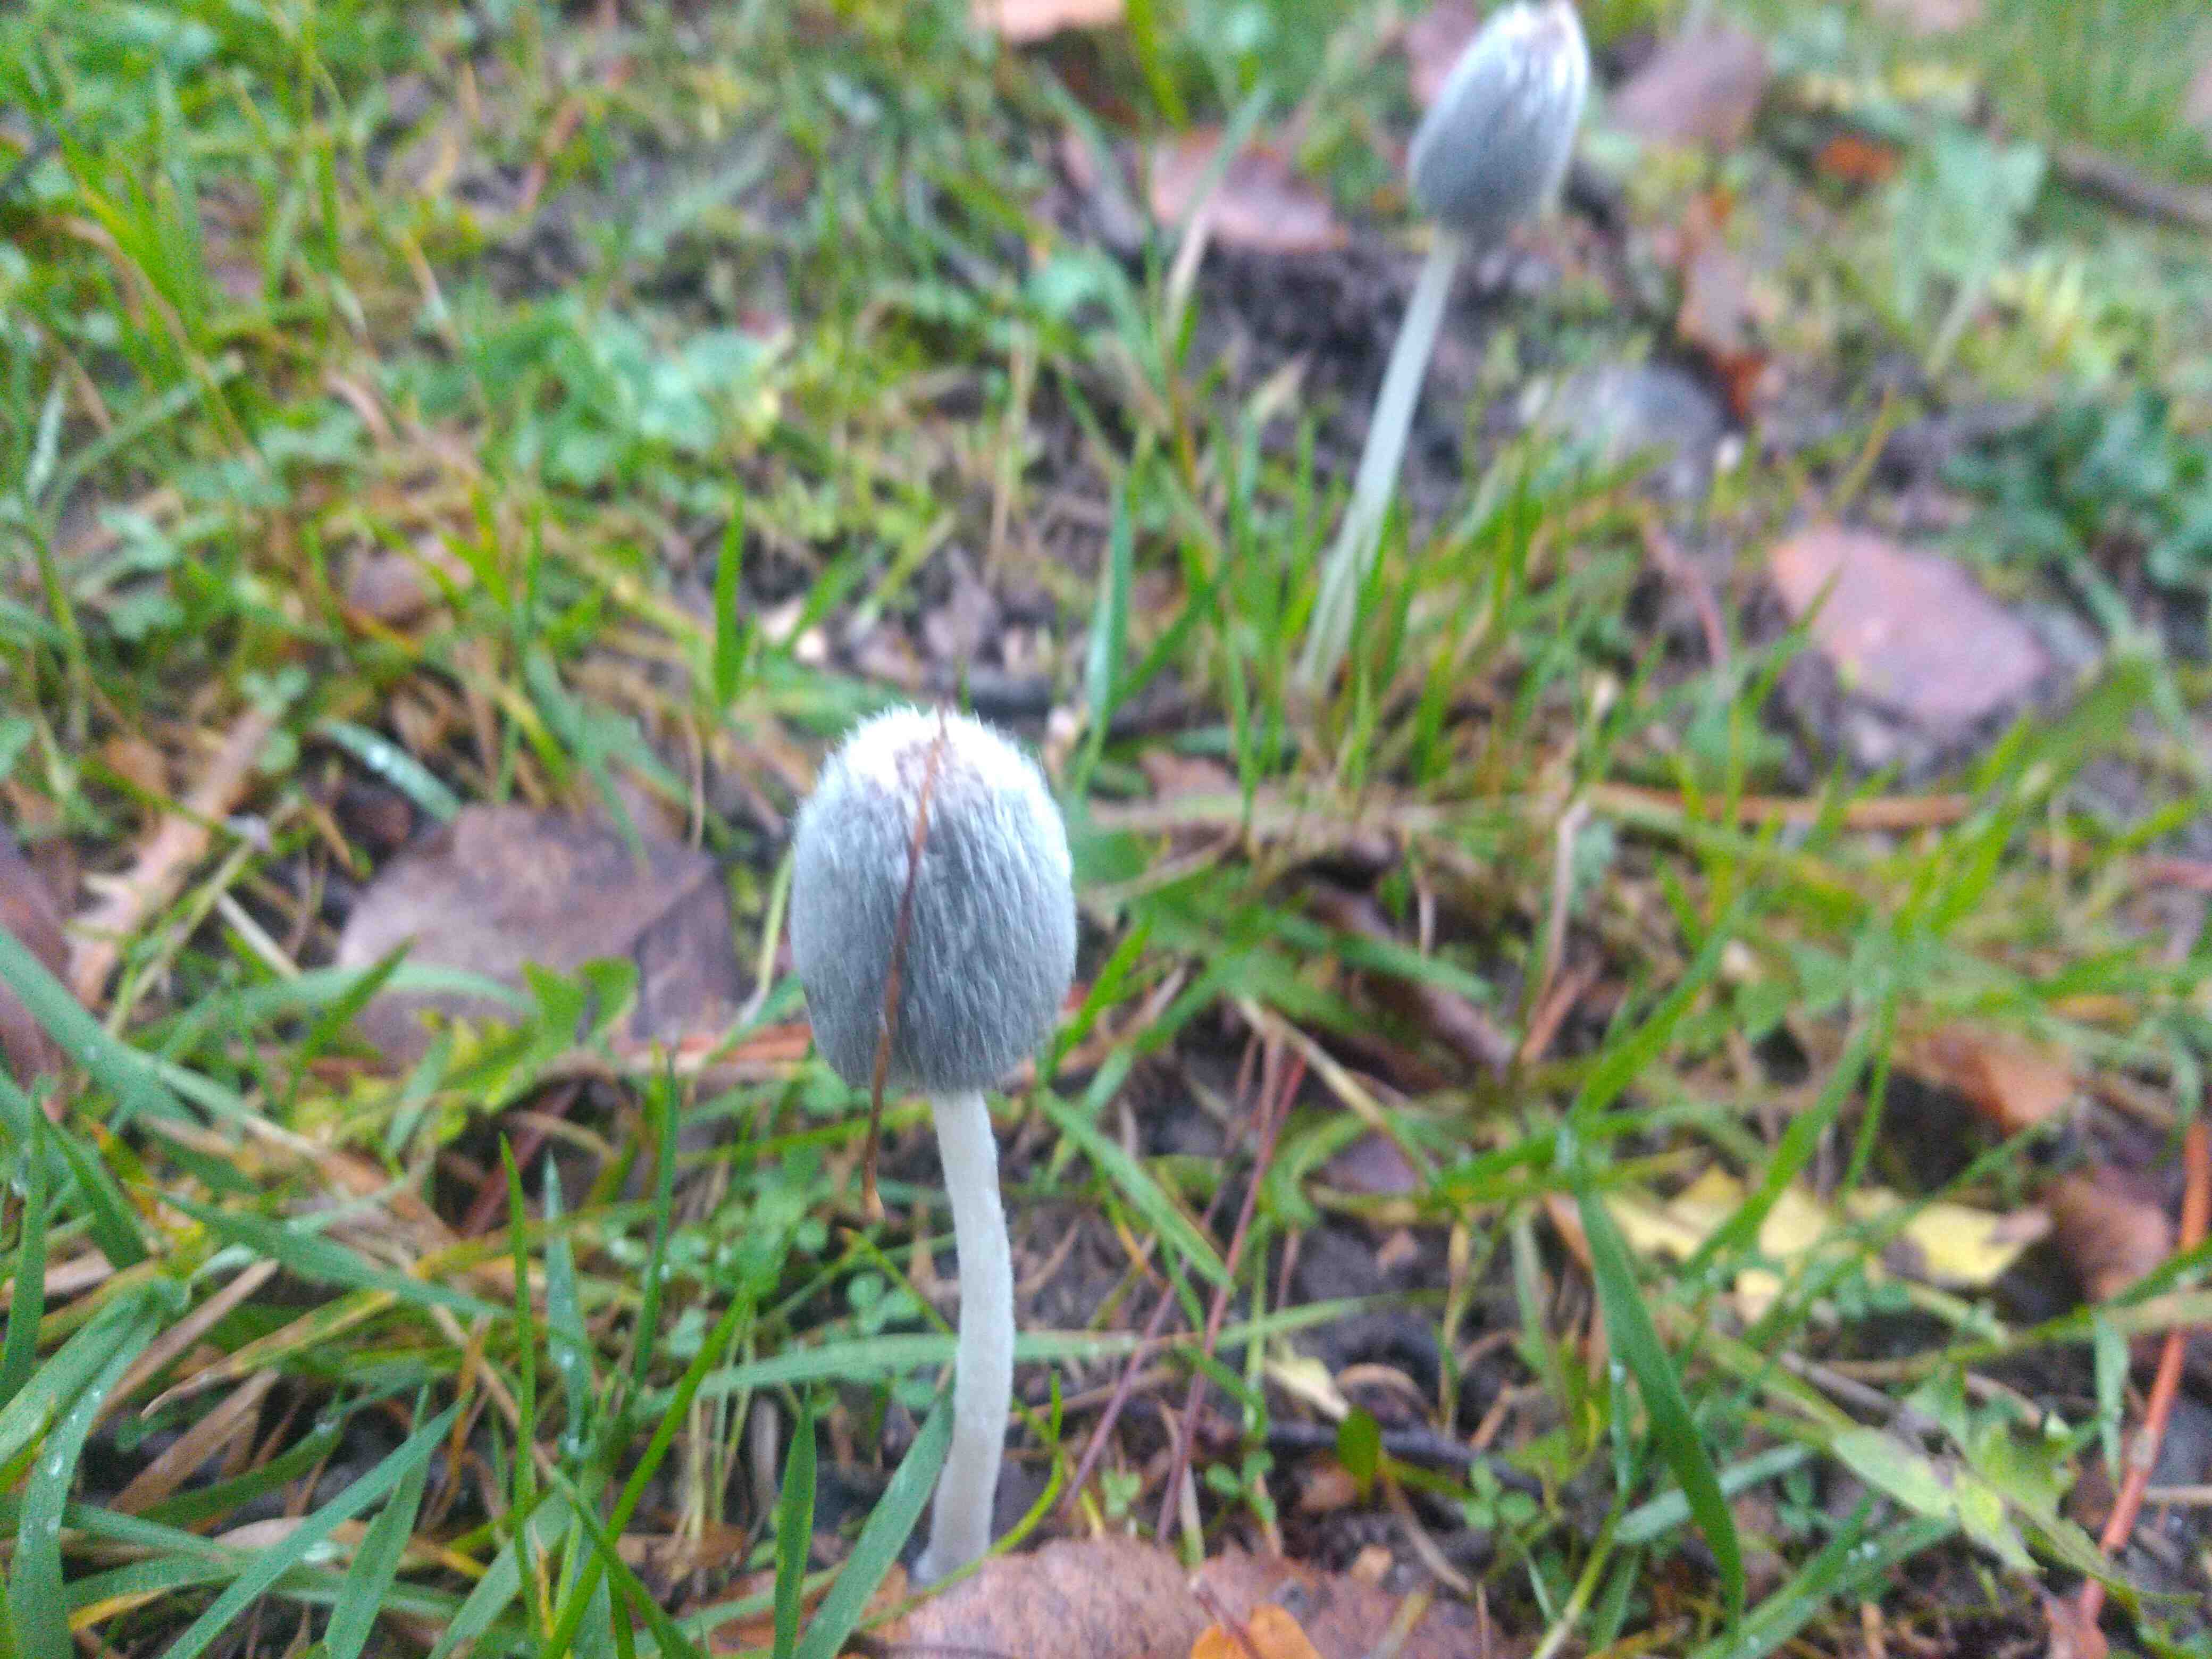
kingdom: Fungi
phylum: Basidiomycota
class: Agaricomycetes
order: Agaricales
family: Psathyrellaceae
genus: Coprinopsis
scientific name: Coprinopsis lagopus
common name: dunstokket blækhat
